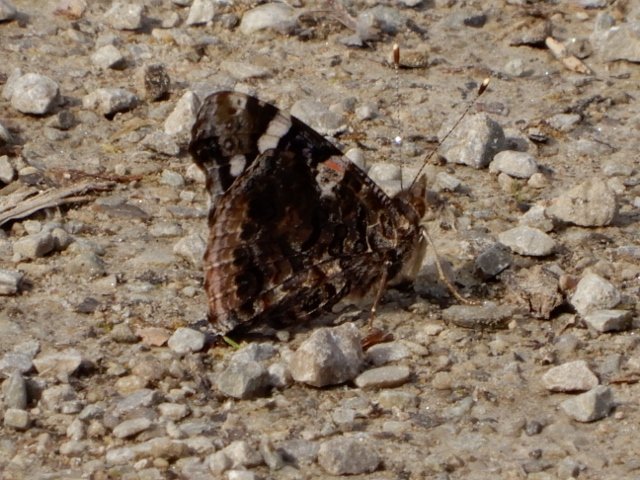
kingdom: Animalia
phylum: Arthropoda
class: Insecta
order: Lepidoptera
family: Nymphalidae
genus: Vanessa
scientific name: Vanessa atalanta
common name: Red Admiral
